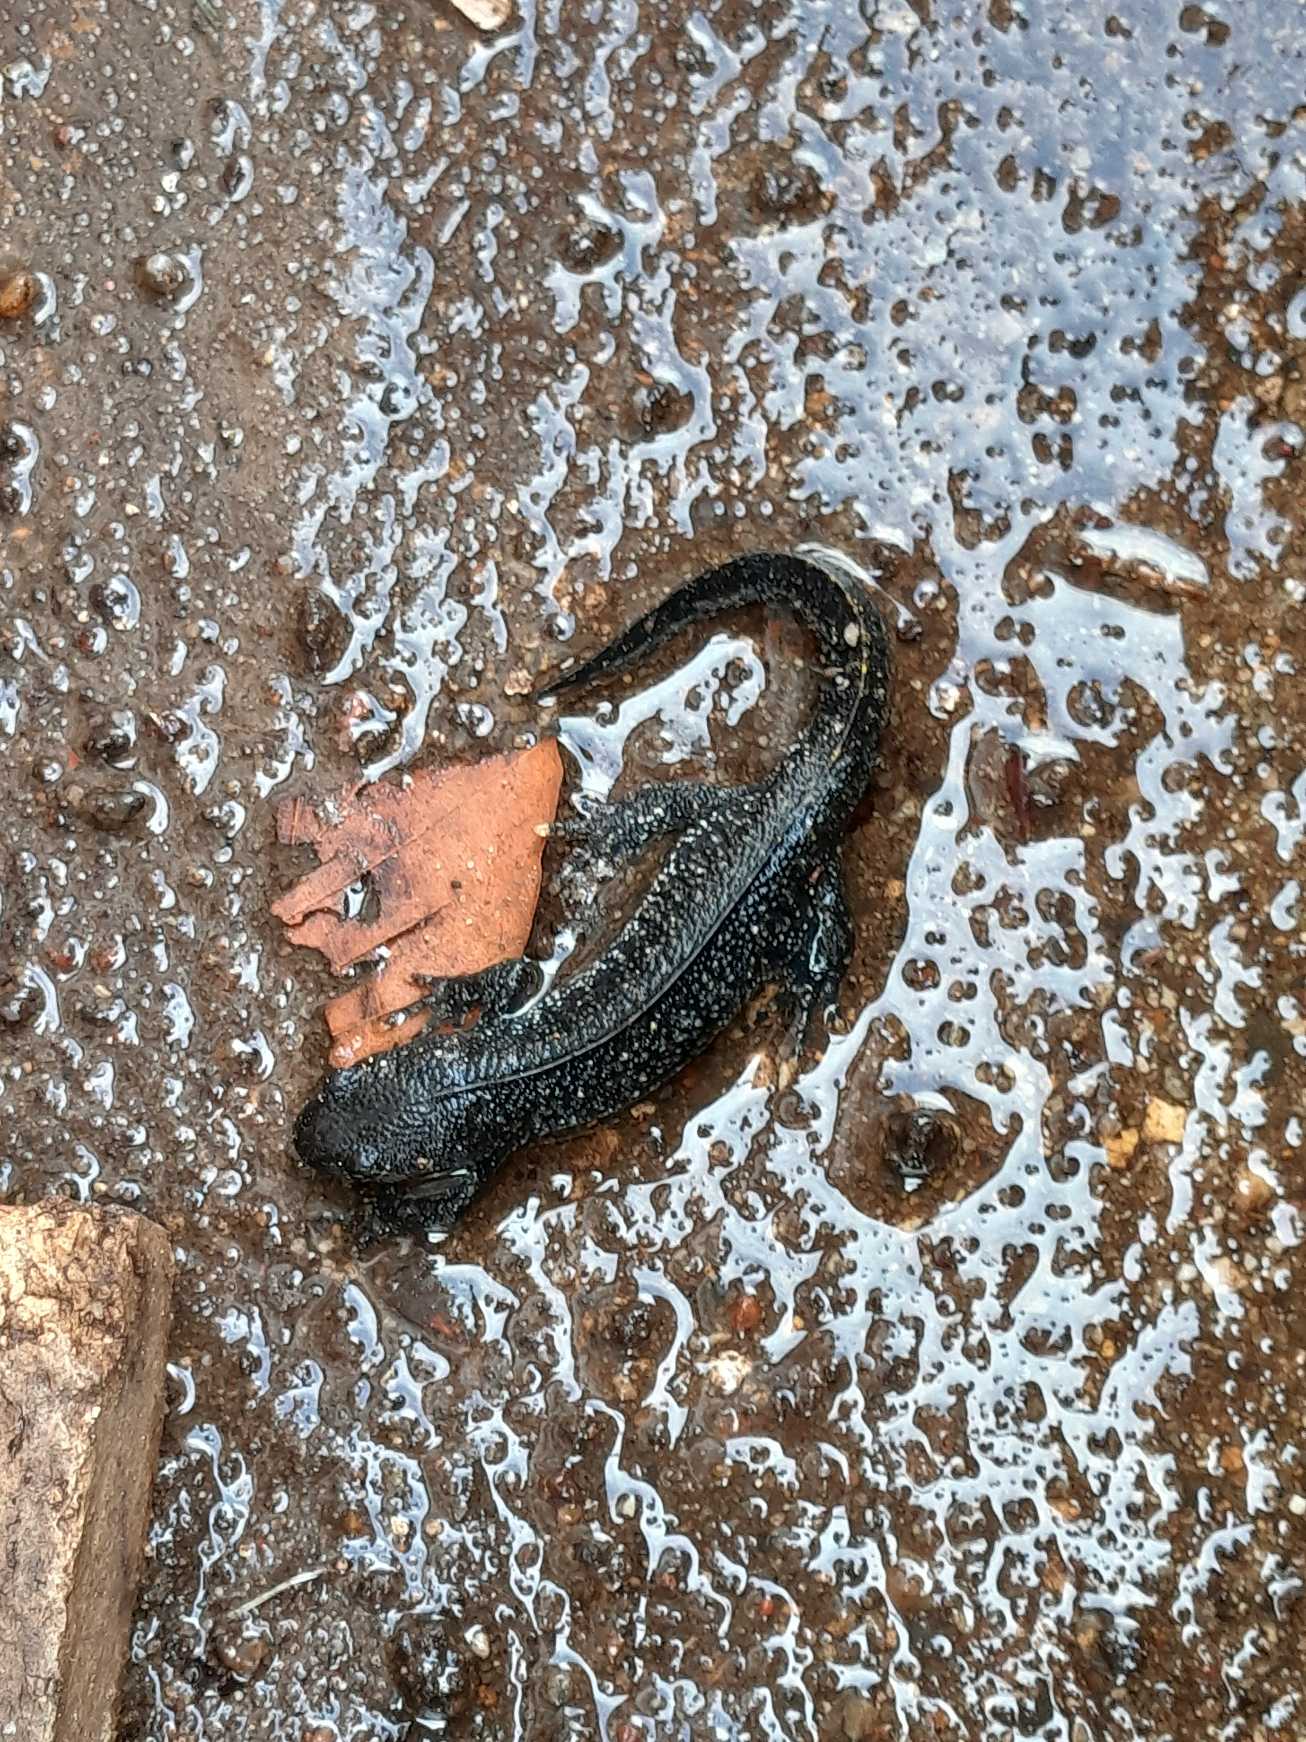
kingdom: Animalia
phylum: Chordata
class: Amphibia
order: Caudata
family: Salamandridae
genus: Triturus
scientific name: Triturus cristatus
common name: Stor vandsalamander
